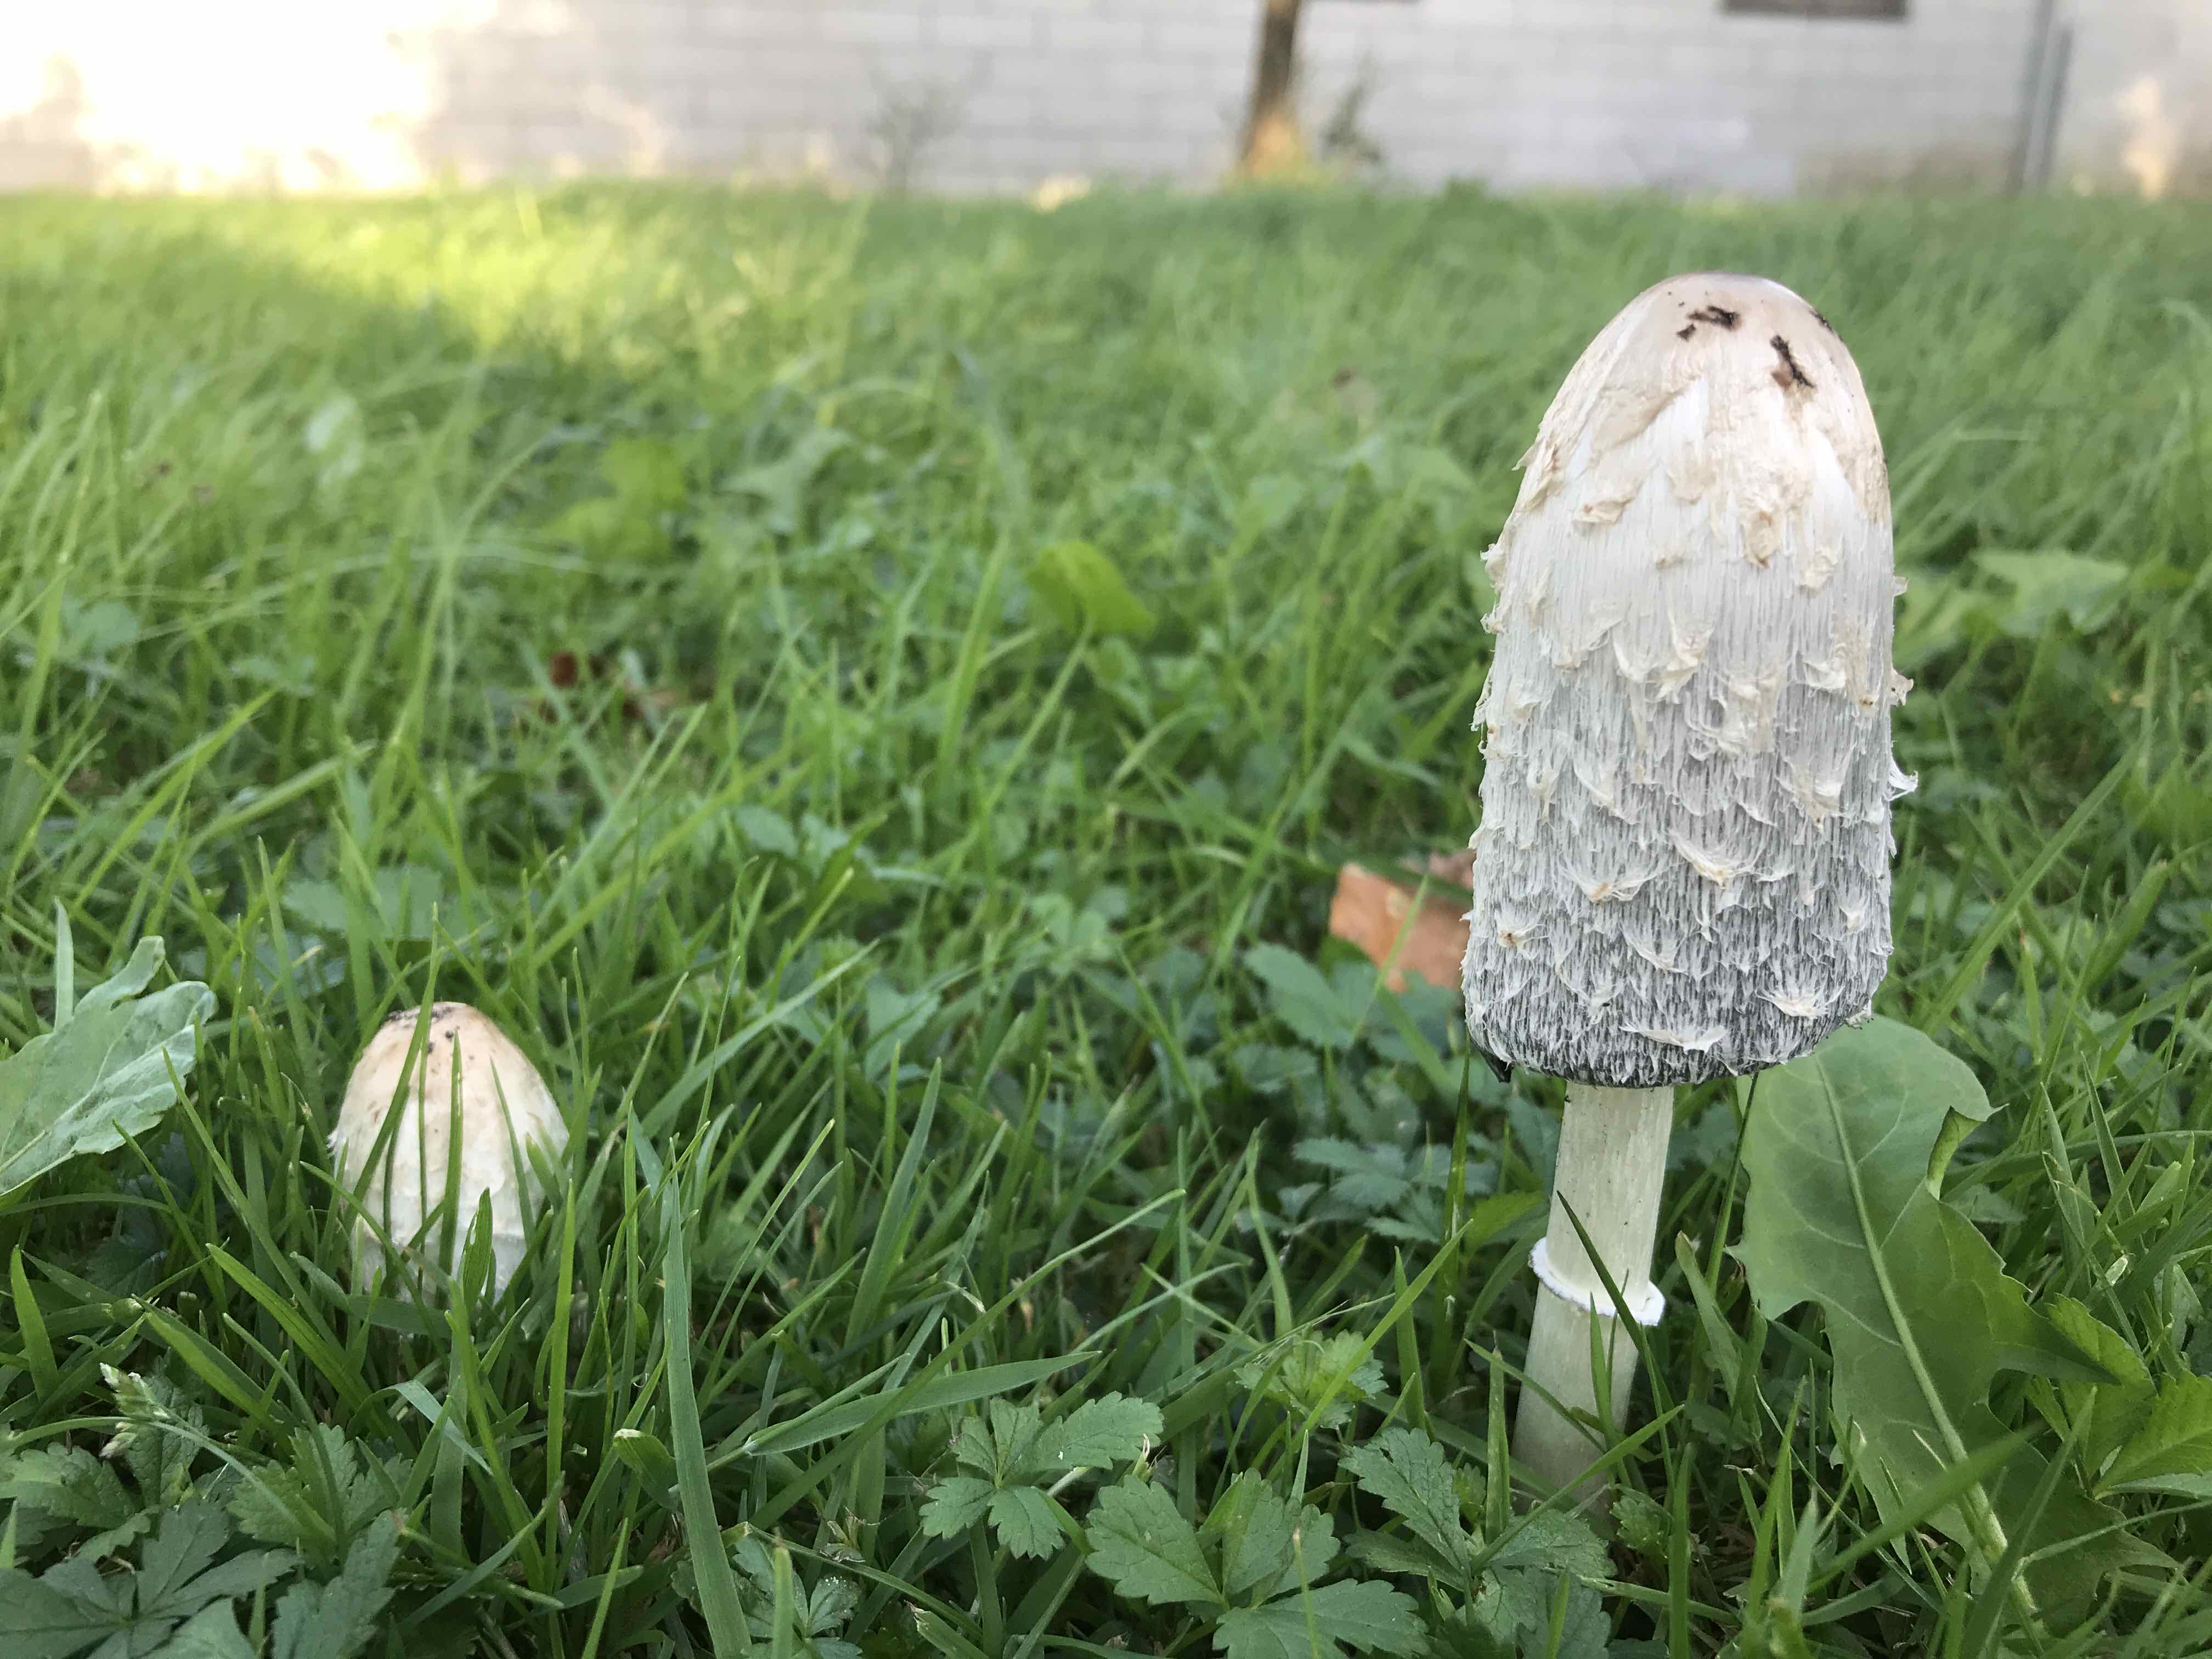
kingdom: Fungi
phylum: Basidiomycota
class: Agaricomycetes
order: Agaricales
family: Agaricaceae
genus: Coprinus
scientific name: Coprinus comatus
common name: stor parykhat
